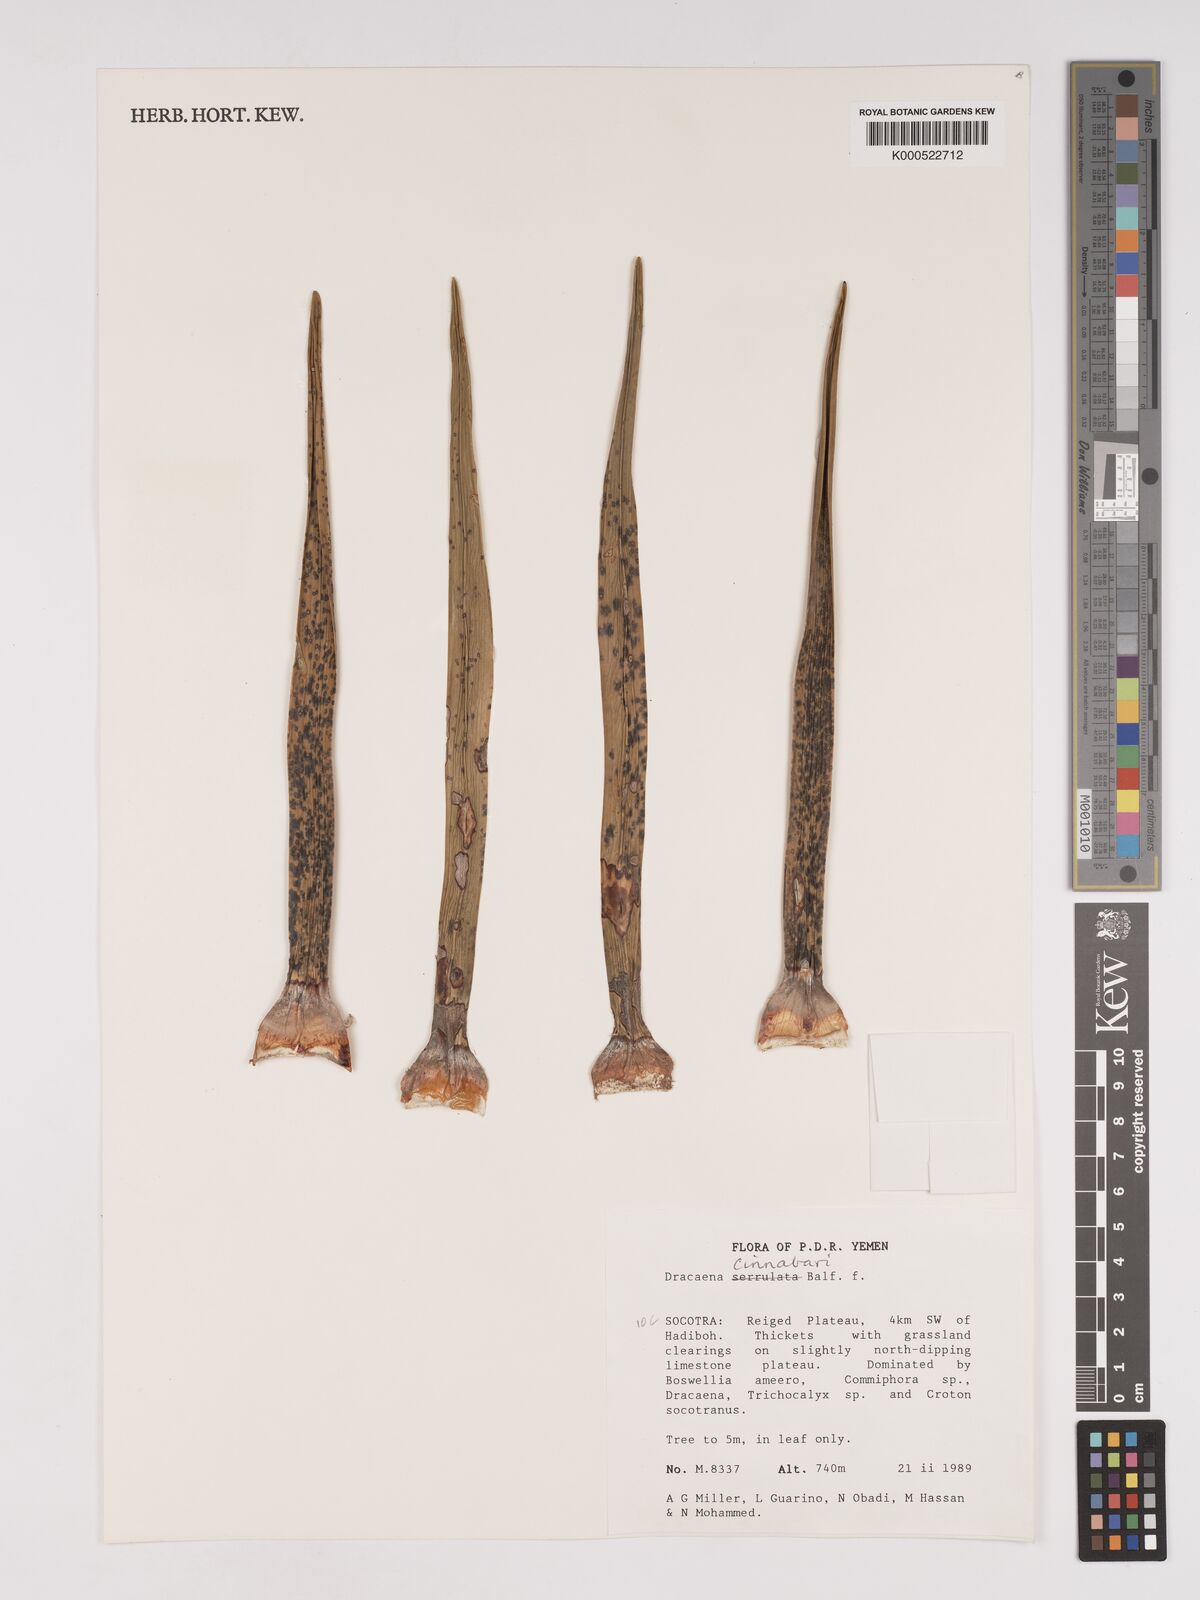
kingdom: Plantae
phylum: Tracheophyta
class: Liliopsida
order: Asparagales
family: Asparagaceae
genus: Dracaena
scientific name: Dracaena cinnabari
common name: Dragon's blood tree
